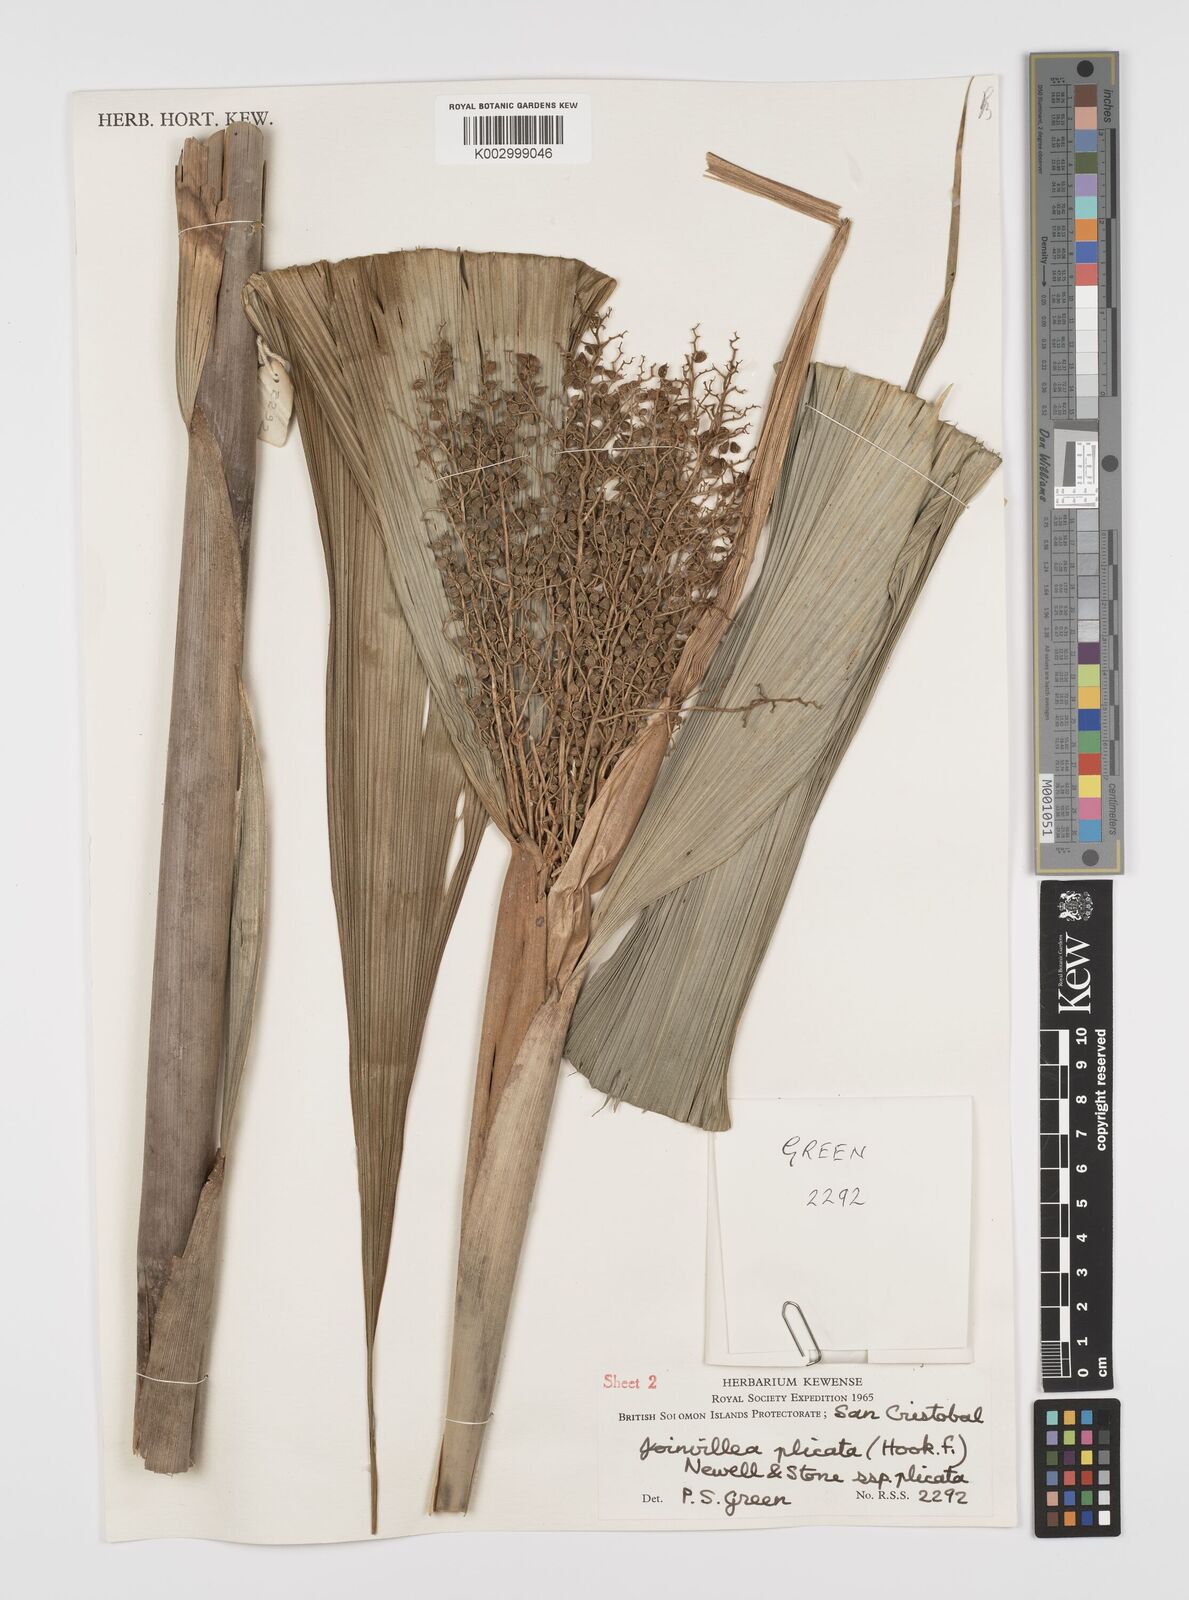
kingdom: Plantae
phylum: Tracheophyta
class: Liliopsida
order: Poales
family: Joinvilleaceae
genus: Joinvillea
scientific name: Joinvillea plicata
